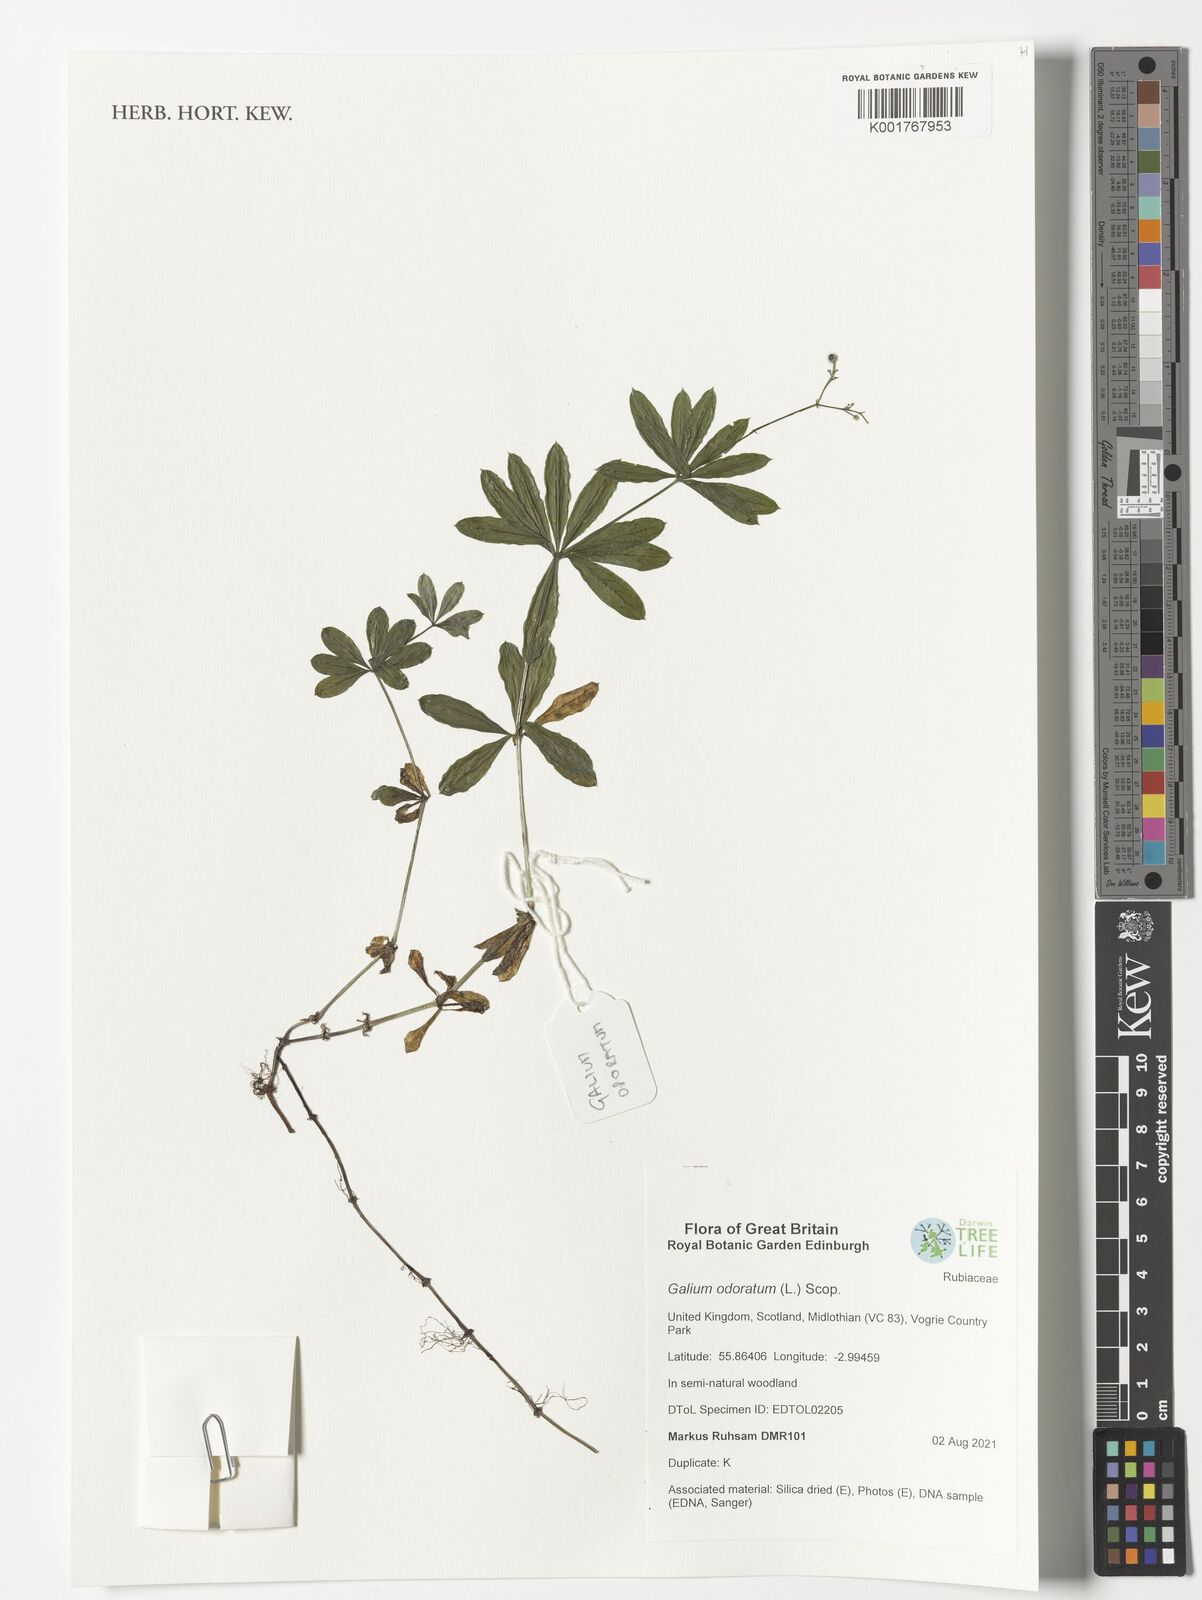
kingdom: Plantae
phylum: Tracheophyta
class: Magnoliopsida
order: Gentianales
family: Rubiaceae
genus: Galium
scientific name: Galium odoratum
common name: Sweet woodruff
